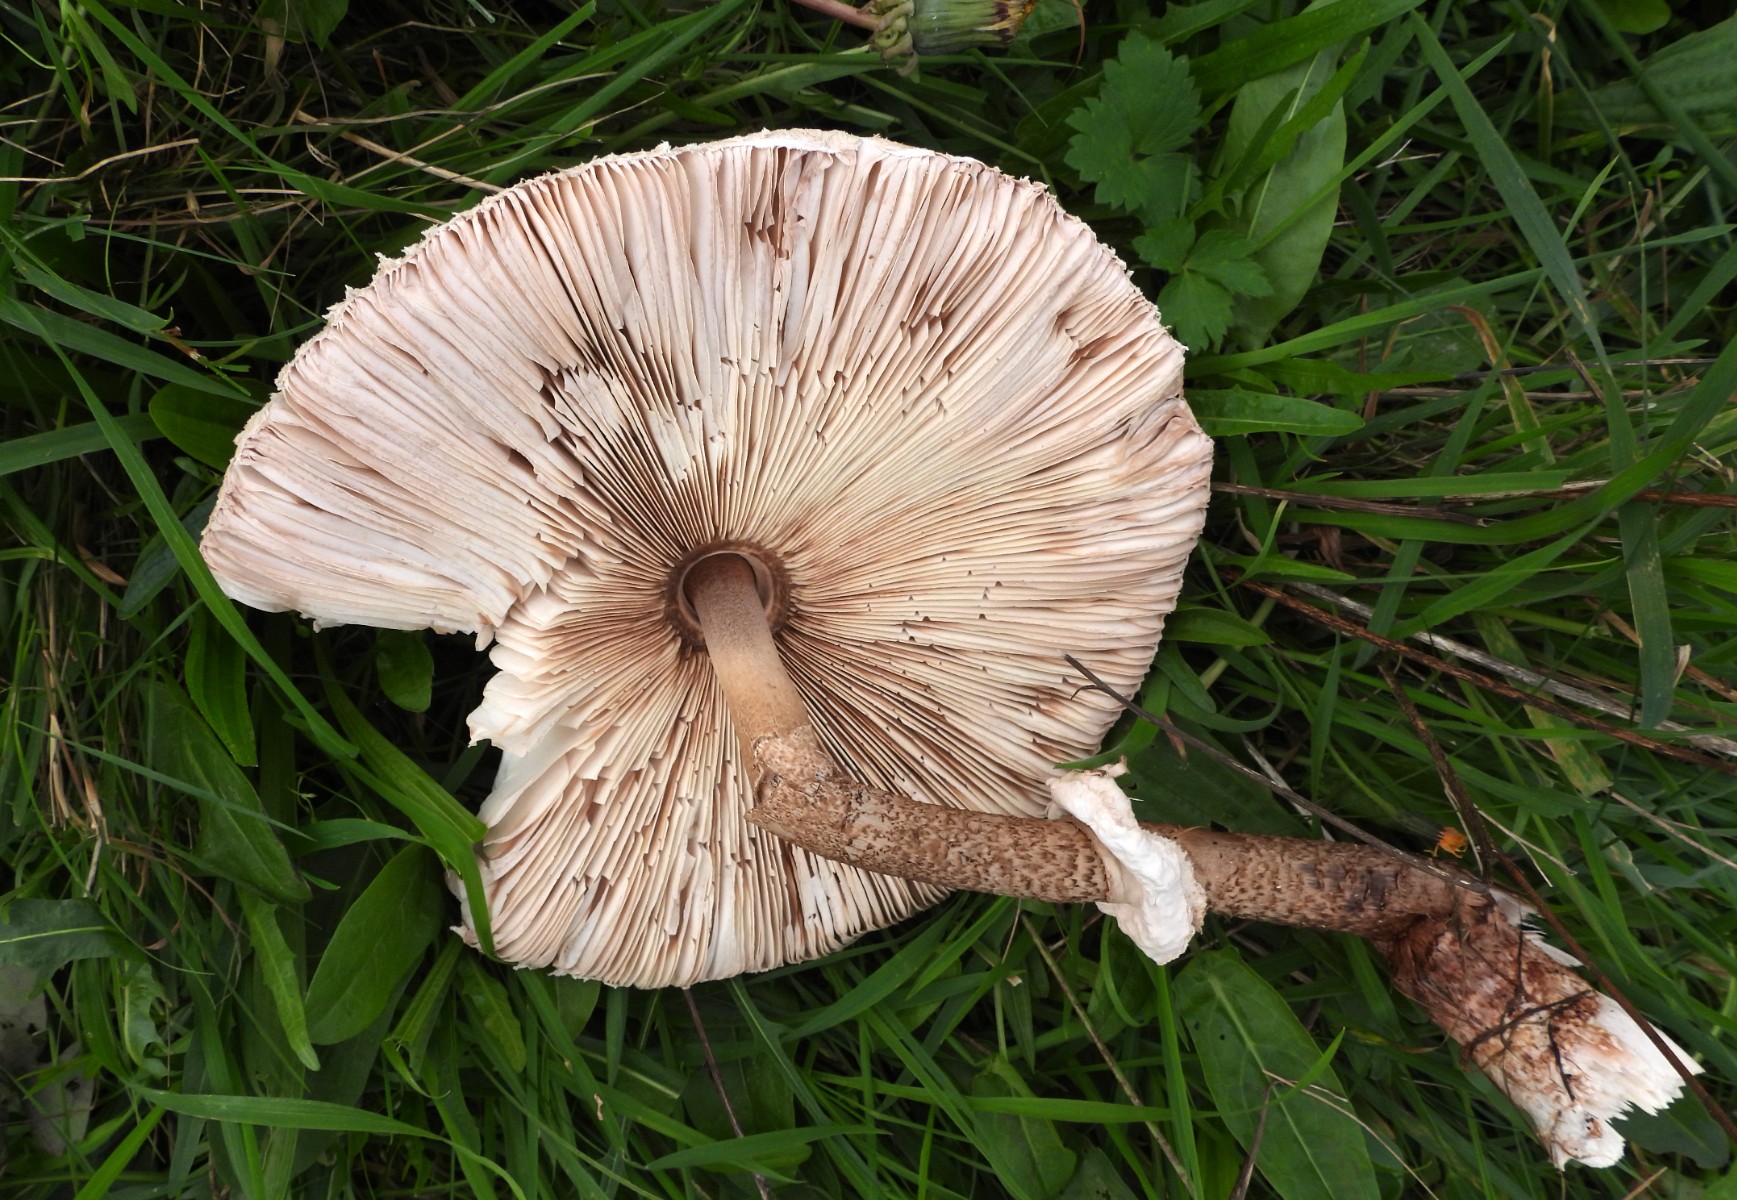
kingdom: Fungi
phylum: Basidiomycota
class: Agaricomycetes
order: Agaricales
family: Agaricaceae
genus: Macrolepiota
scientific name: Macrolepiota procera
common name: stor kæmpeparasolhat
